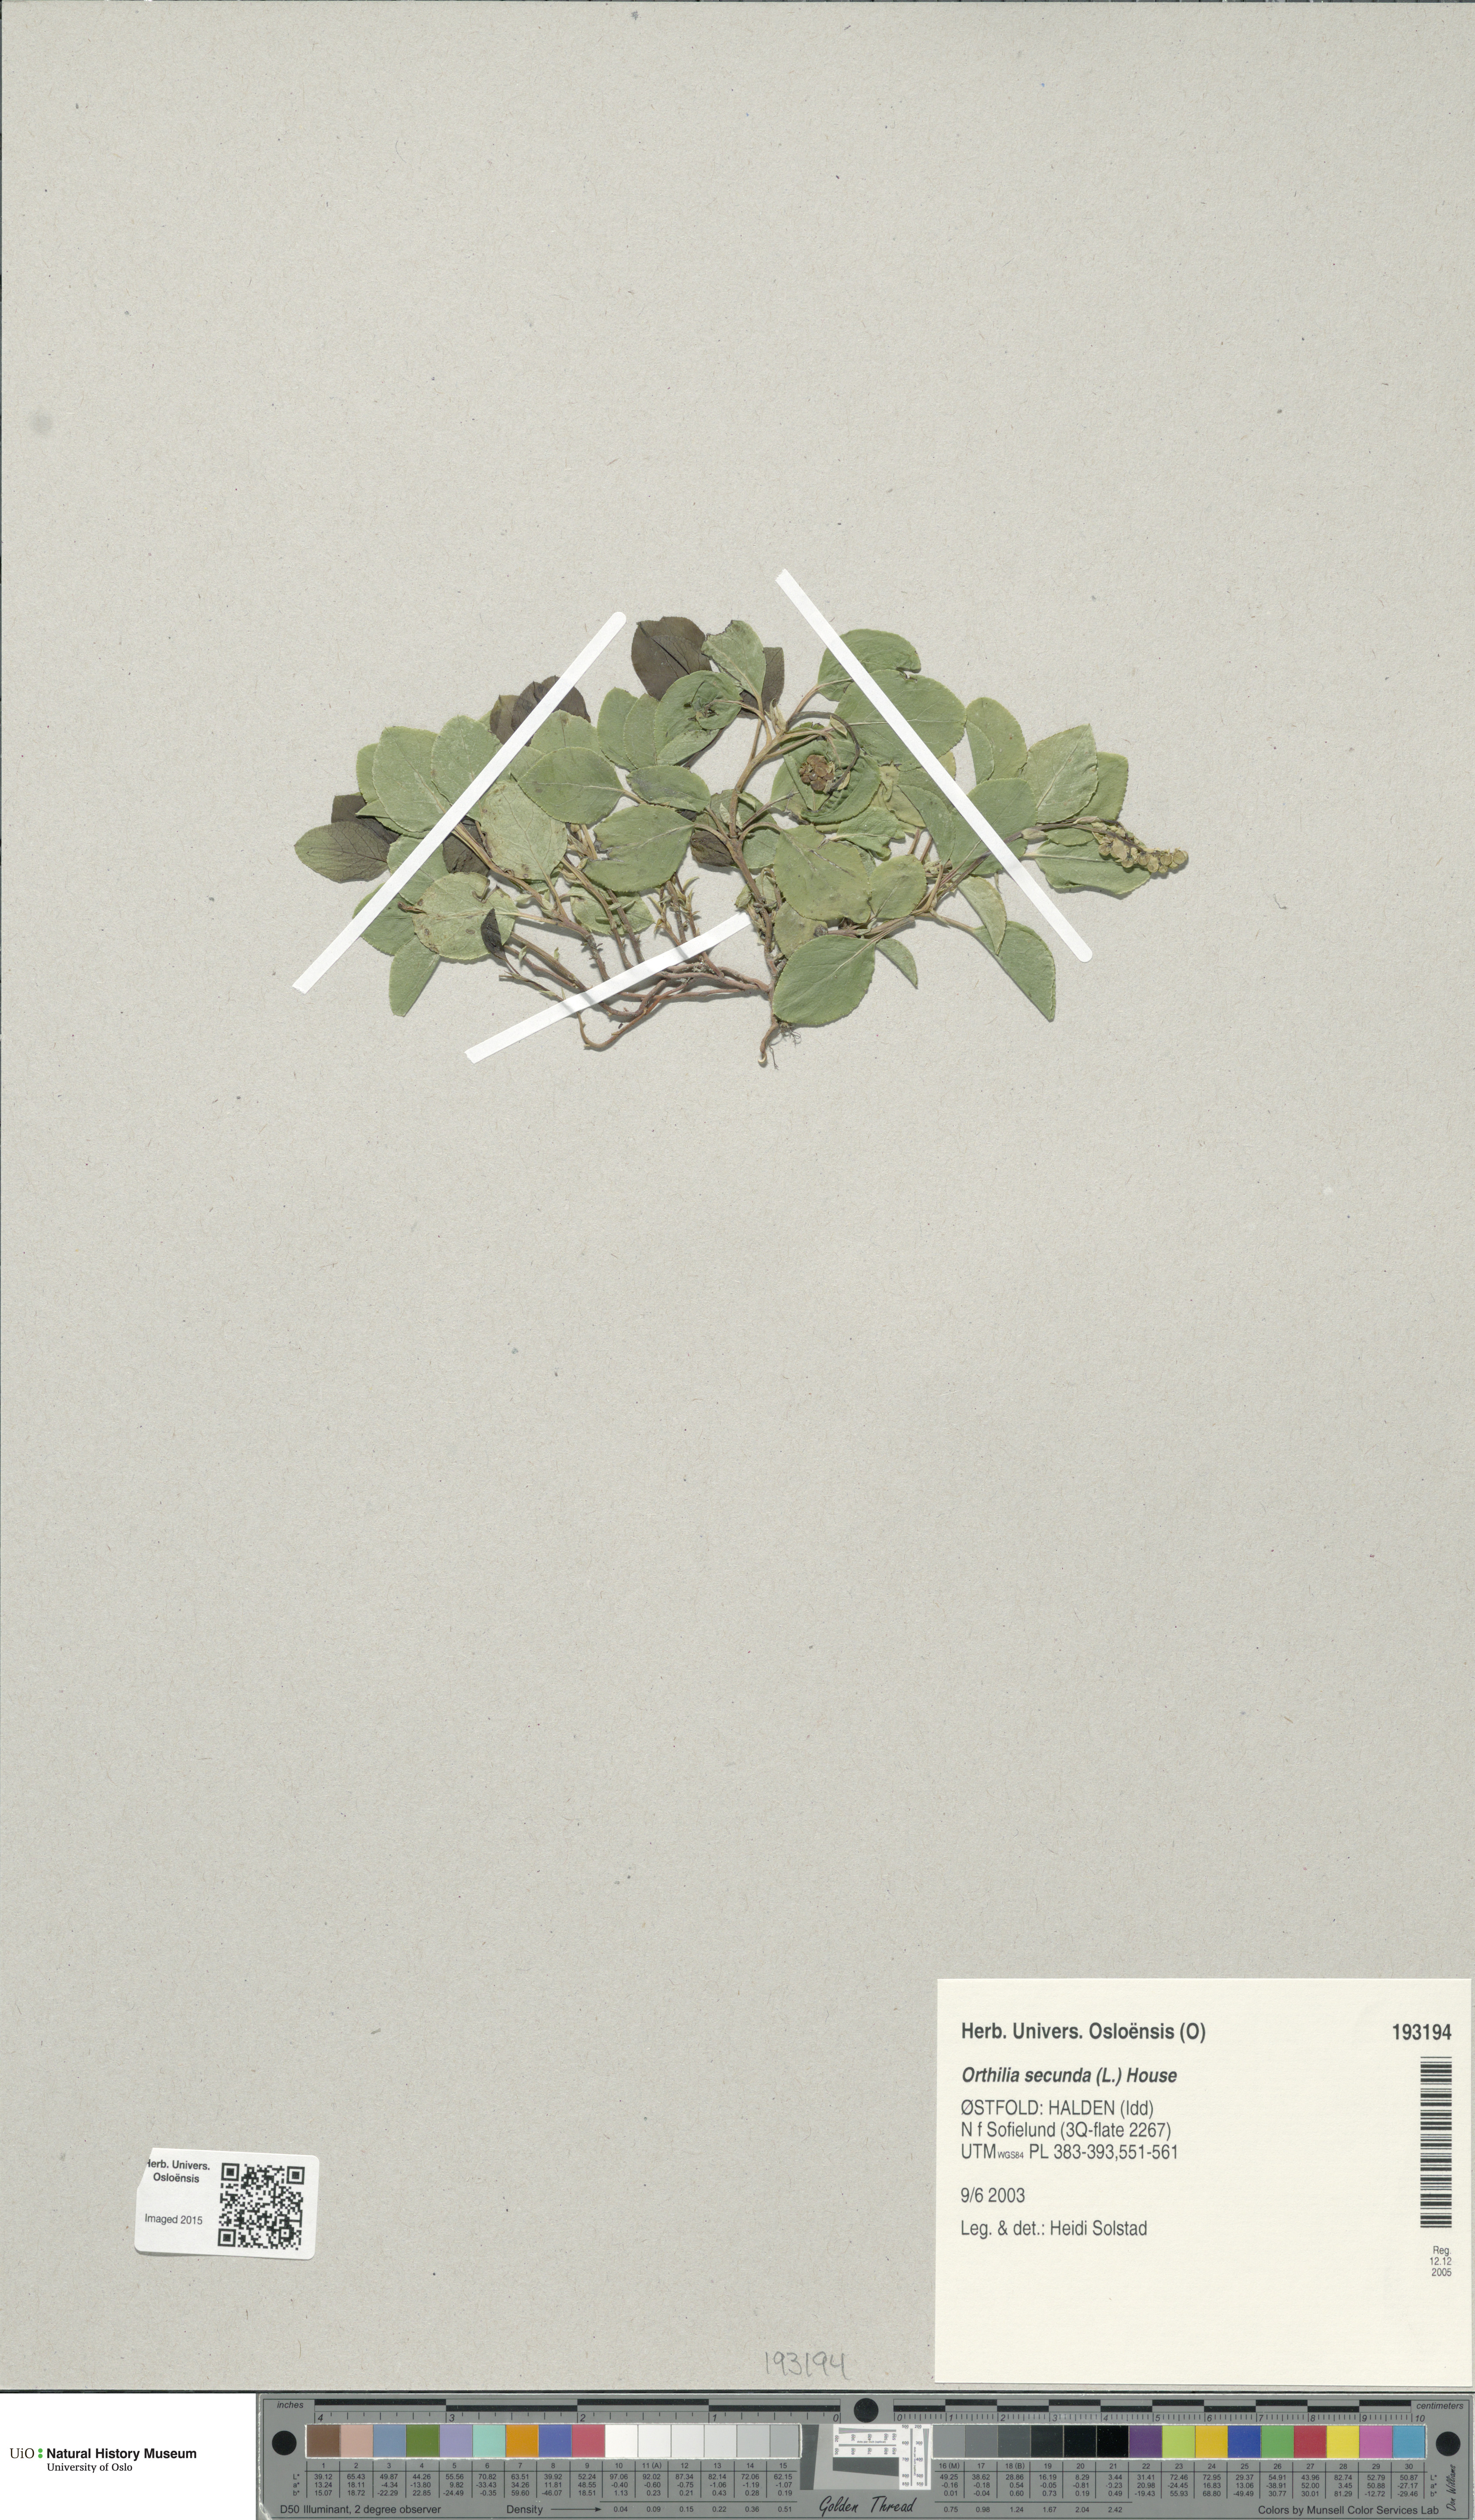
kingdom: Plantae
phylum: Tracheophyta
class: Magnoliopsida
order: Ericales
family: Ericaceae
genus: Orthilia
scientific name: Orthilia secunda
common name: One-sided orthilia
